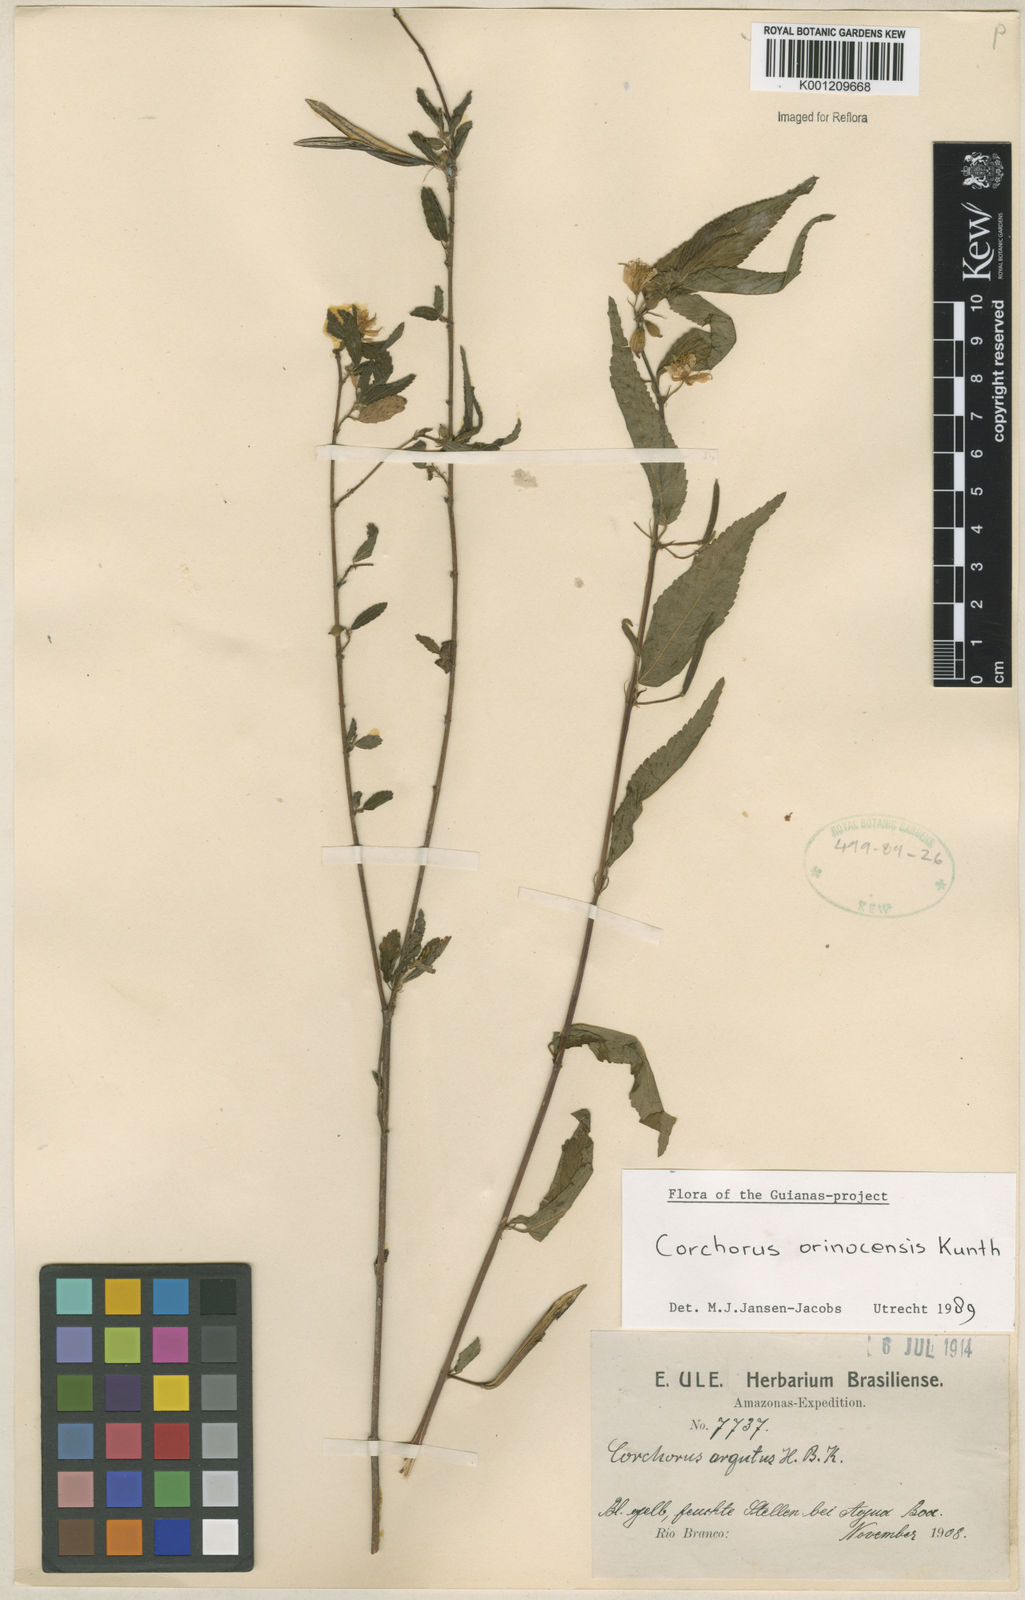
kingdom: Plantae
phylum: Tracheophyta
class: Magnoliopsida
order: Malvales
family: Malvaceae
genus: Corchorus
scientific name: Corchorus orinocensis
